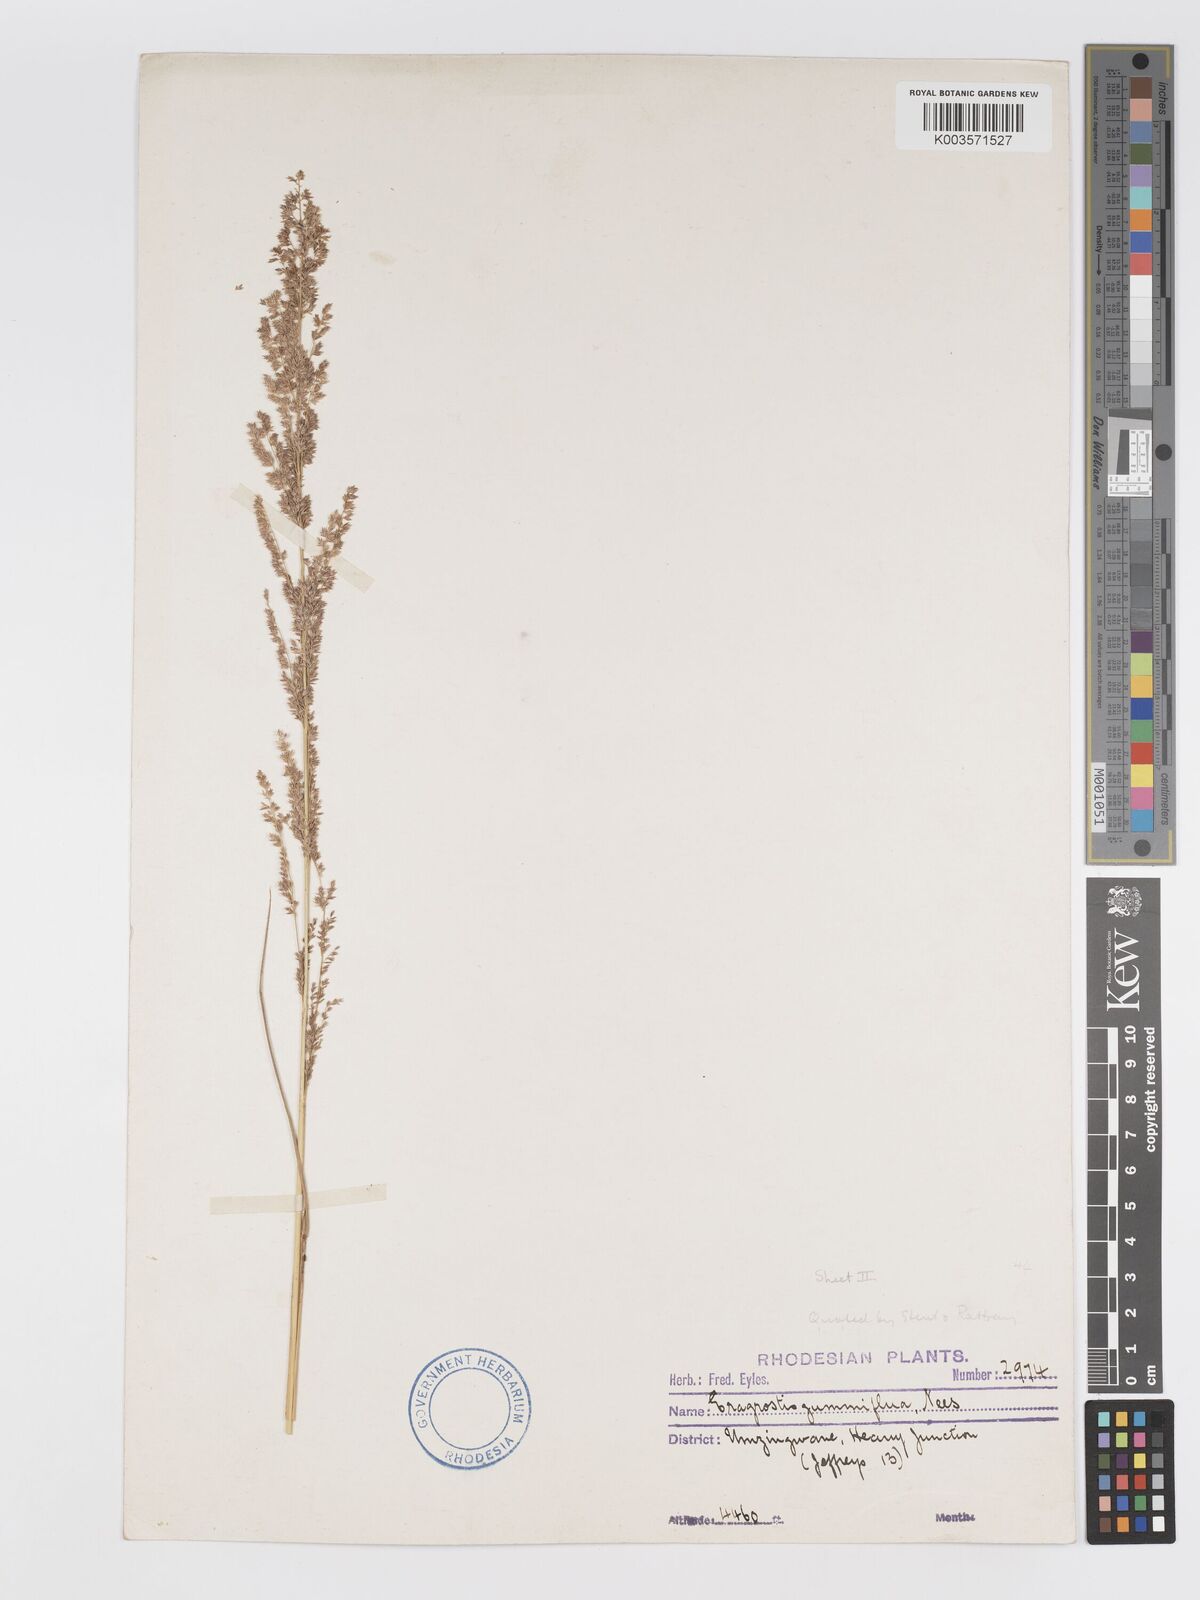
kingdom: Plantae
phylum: Tracheophyta
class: Liliopsida
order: Poales
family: Poaceae
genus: Eragrostis
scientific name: Eragrostis gummiflua
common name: Gum grass
